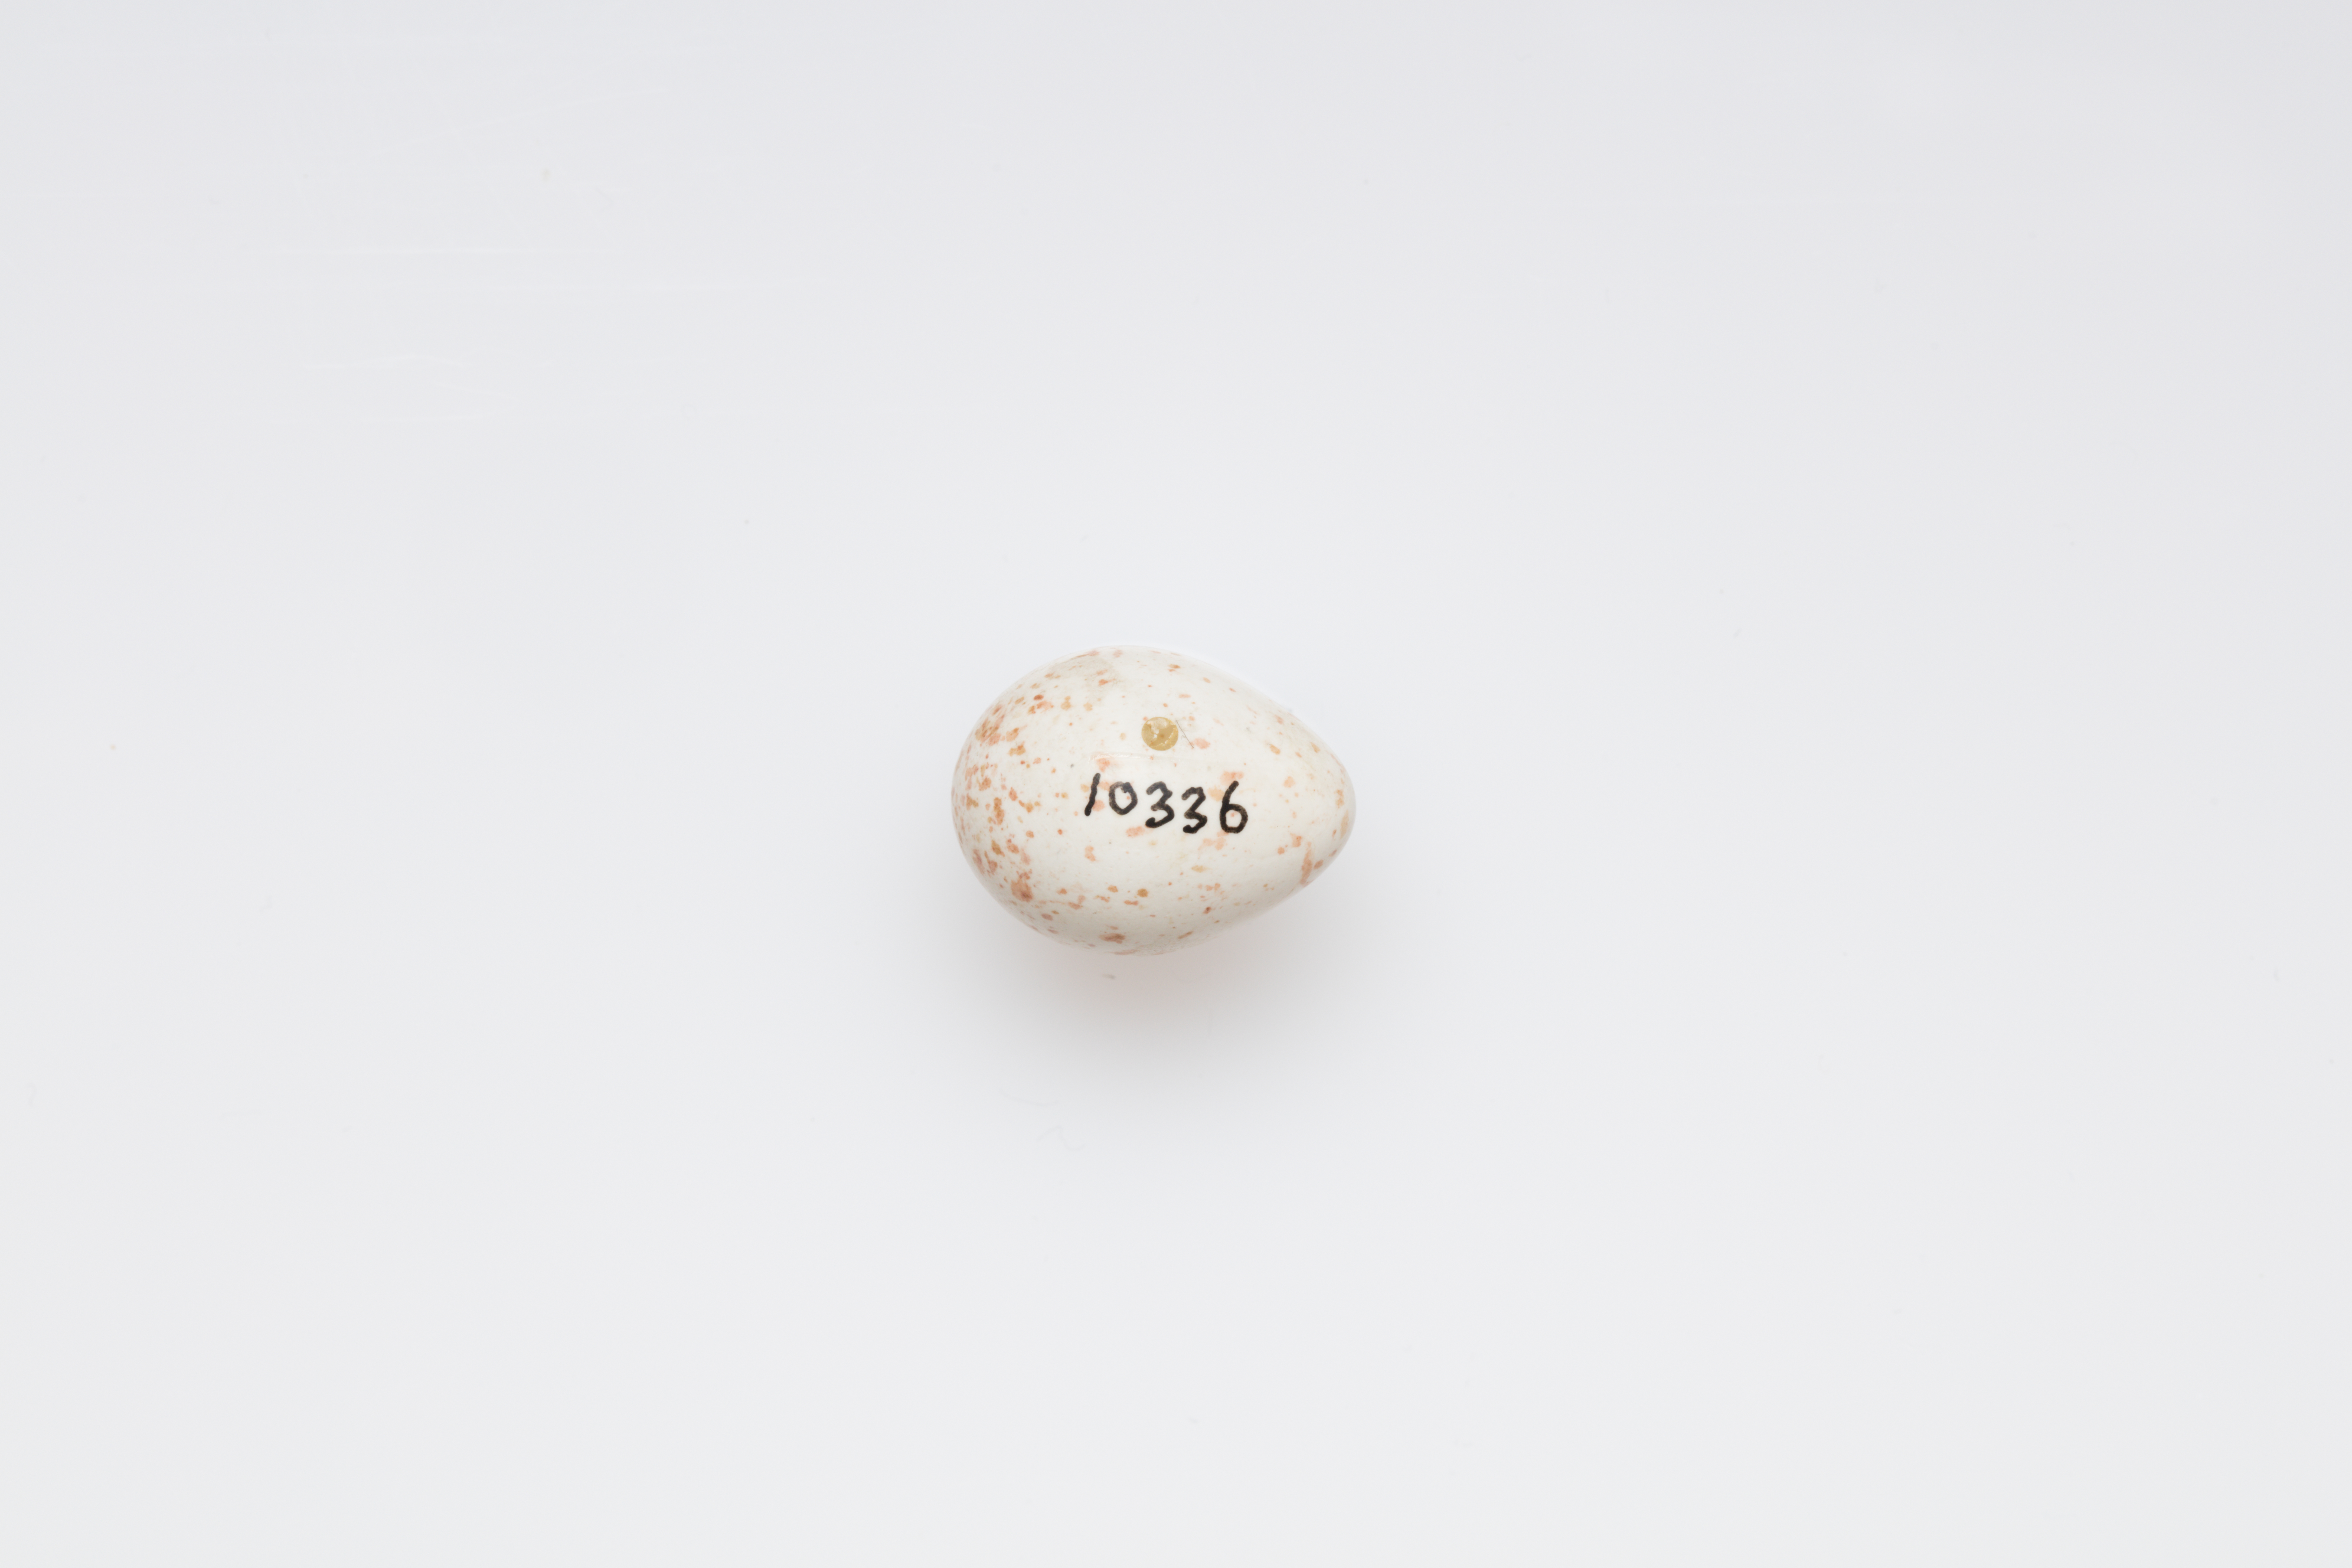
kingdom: Animalia
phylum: Chordata
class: Aves
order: Passeriformes
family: Paridae
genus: Parus
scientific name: Parus major
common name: Great tit
